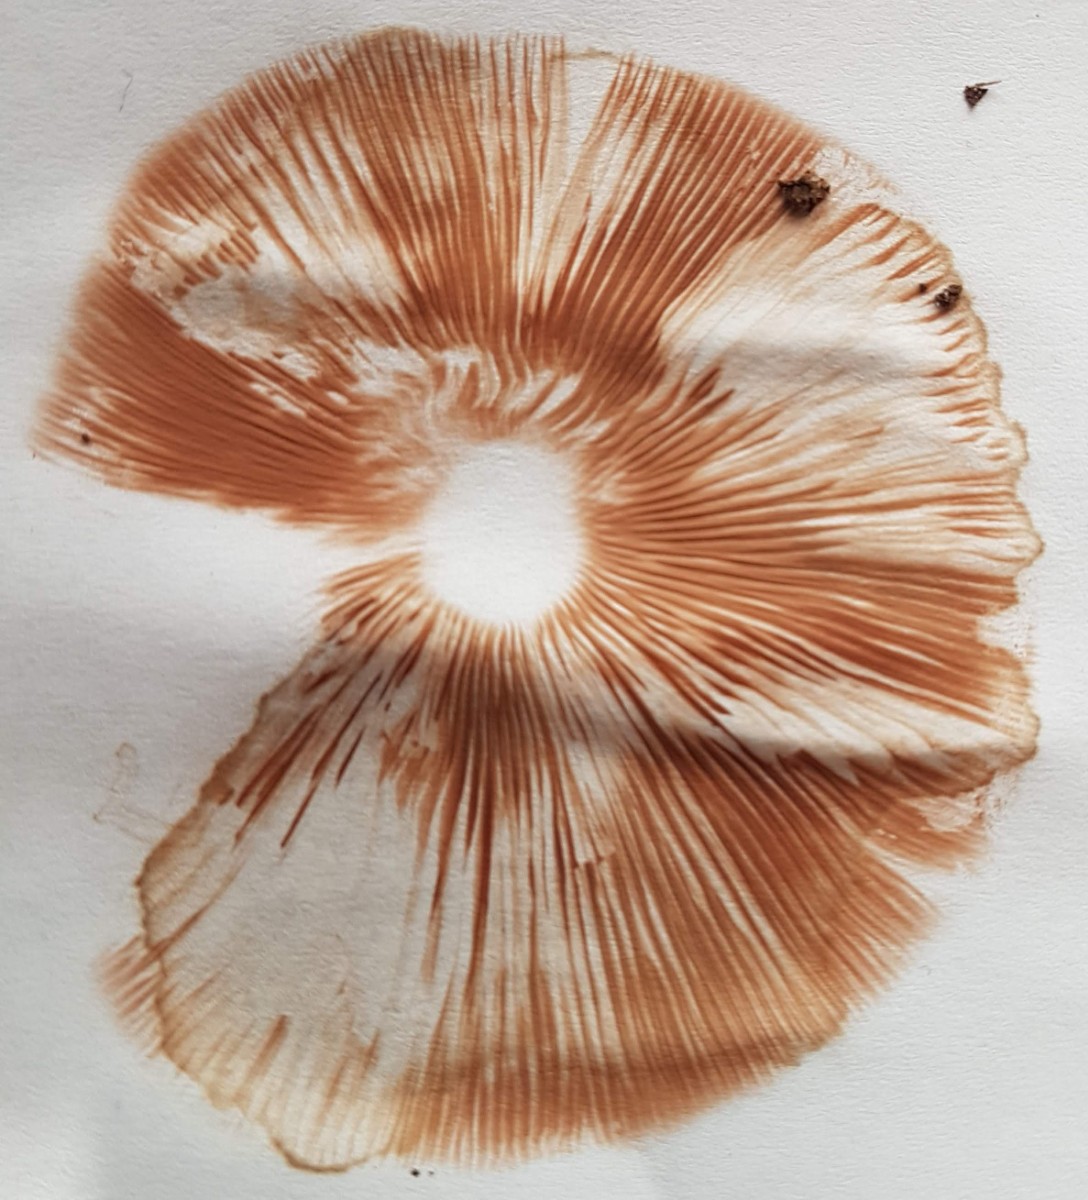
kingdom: Fungi
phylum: Basidiomycota
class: Agaricomycetes
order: Agaricales
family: Pluteaceae
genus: Pluteus
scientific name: Pluteus
